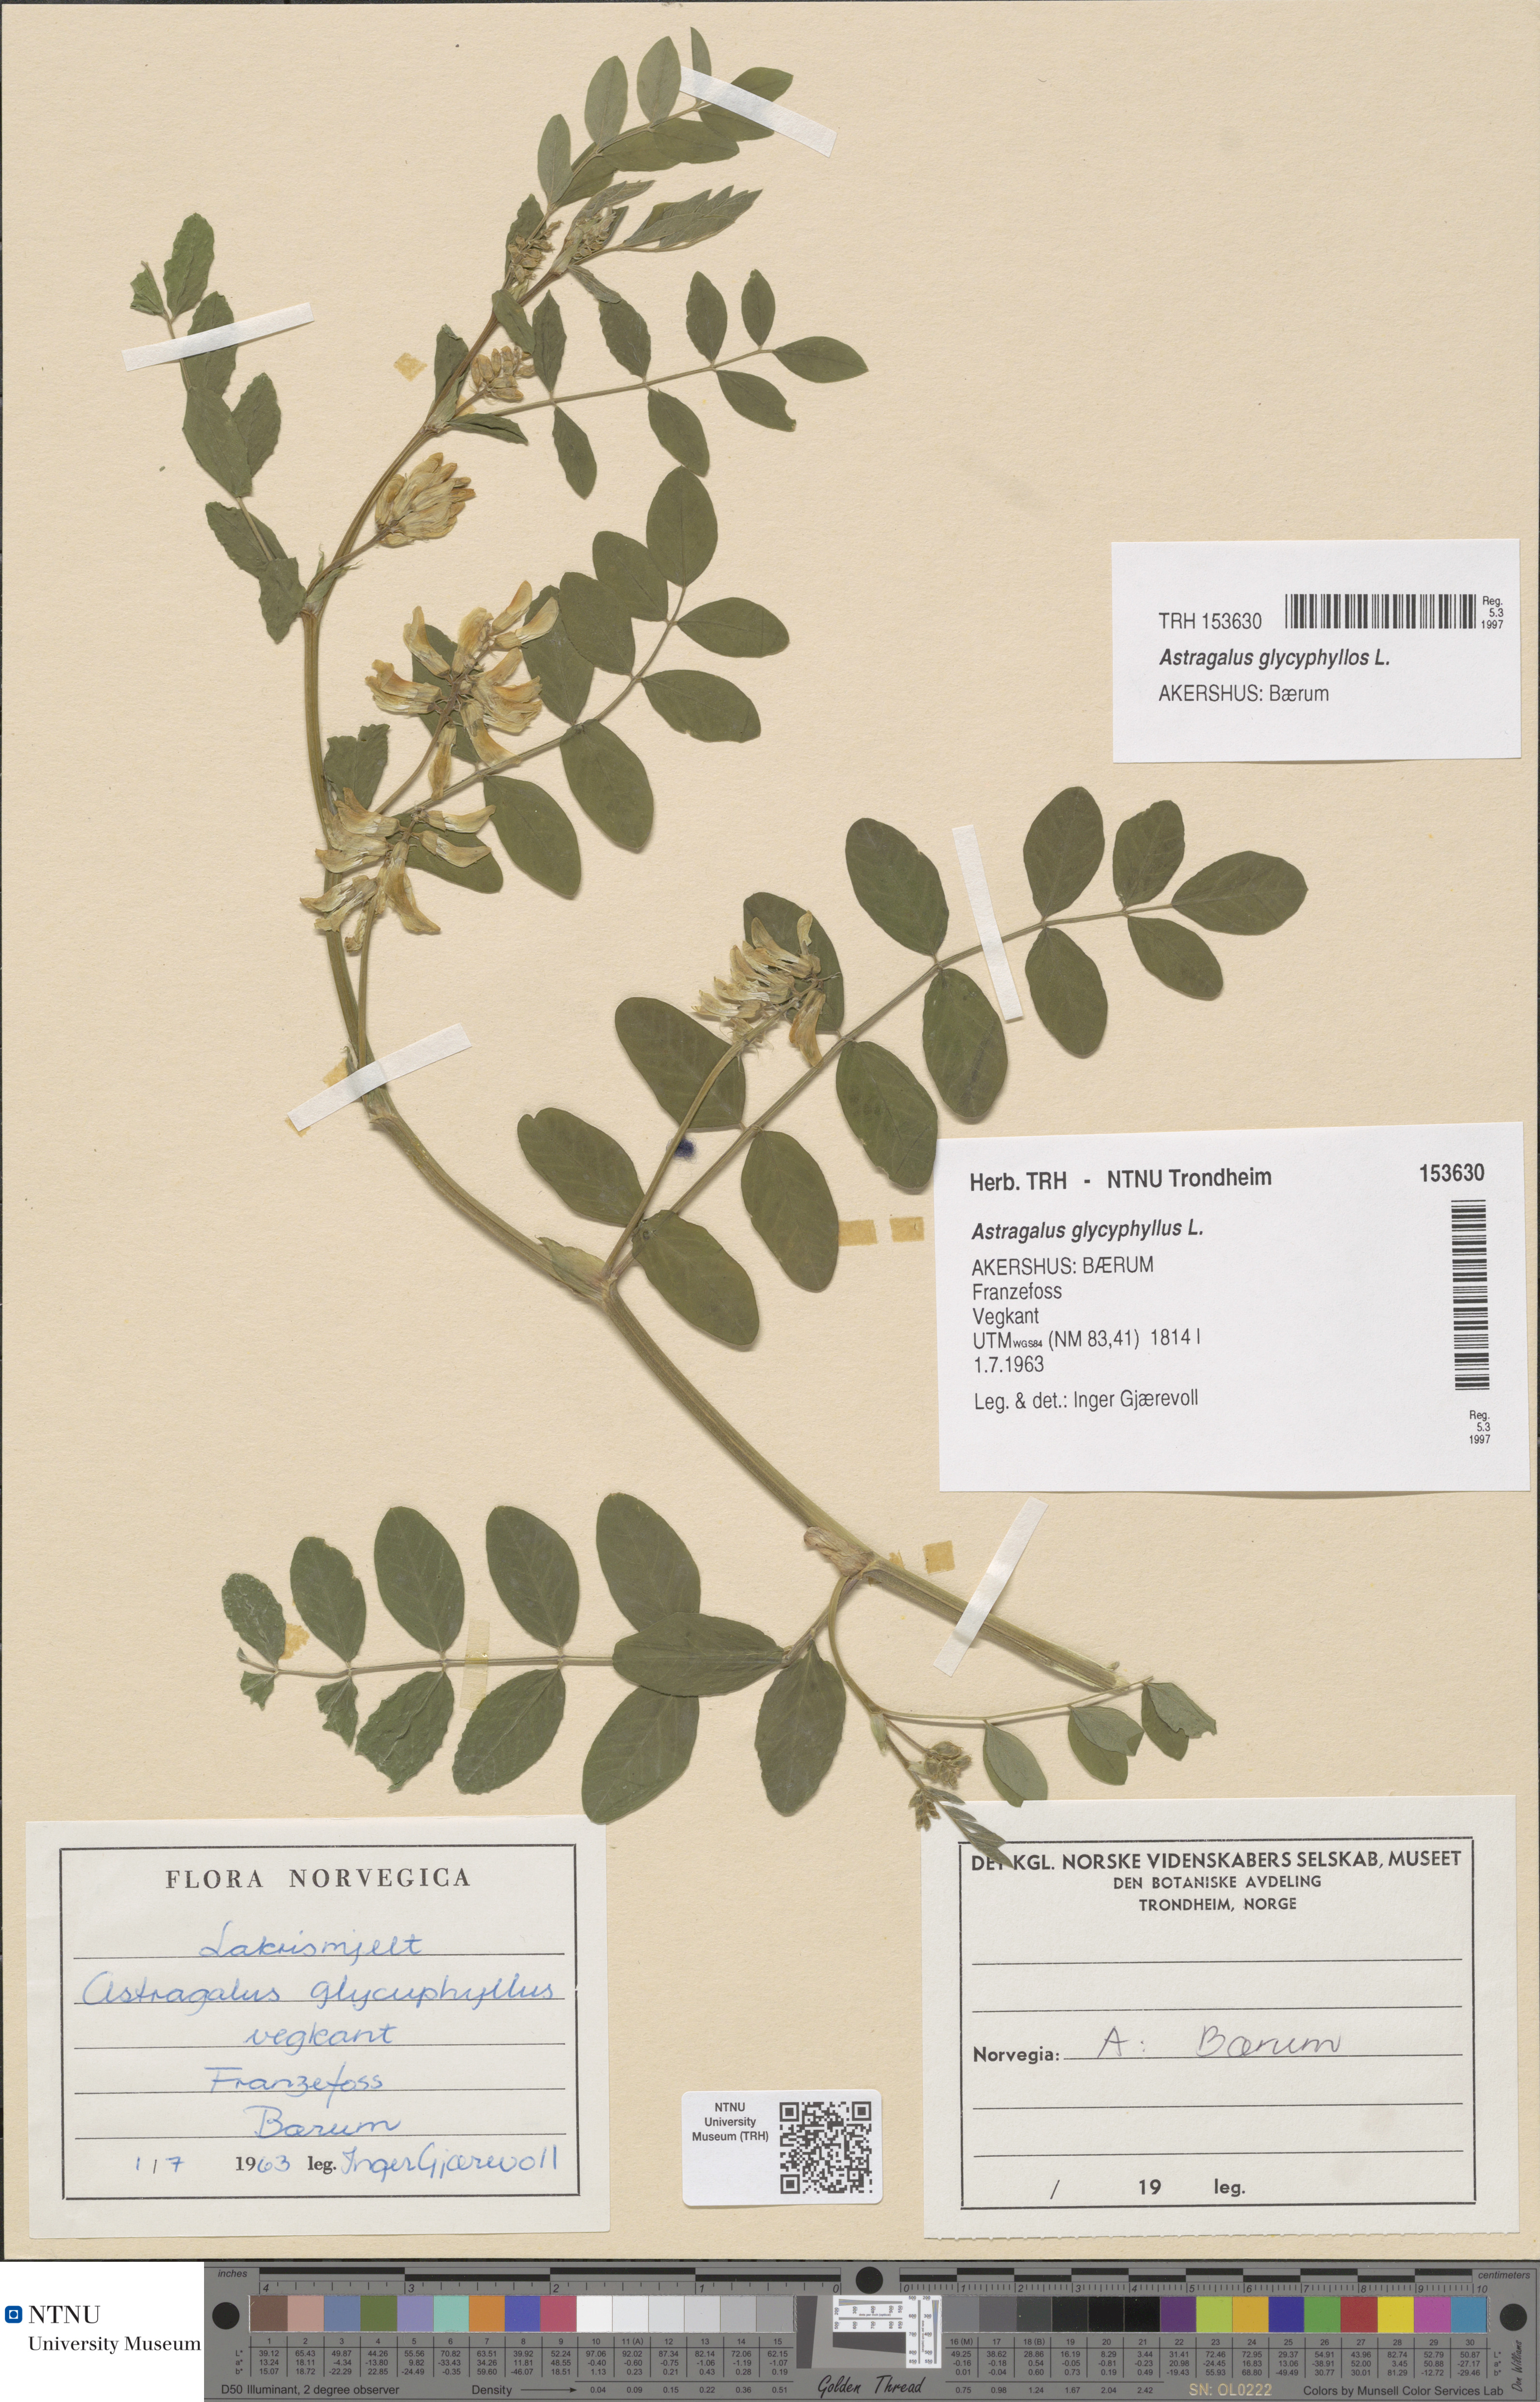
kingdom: Plantae
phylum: Tracheophyta
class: Magnoliopsida
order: Fabales
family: Fabaceae
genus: Astragalus
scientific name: Astragalus glycyphyllos
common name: Wild liquorice
